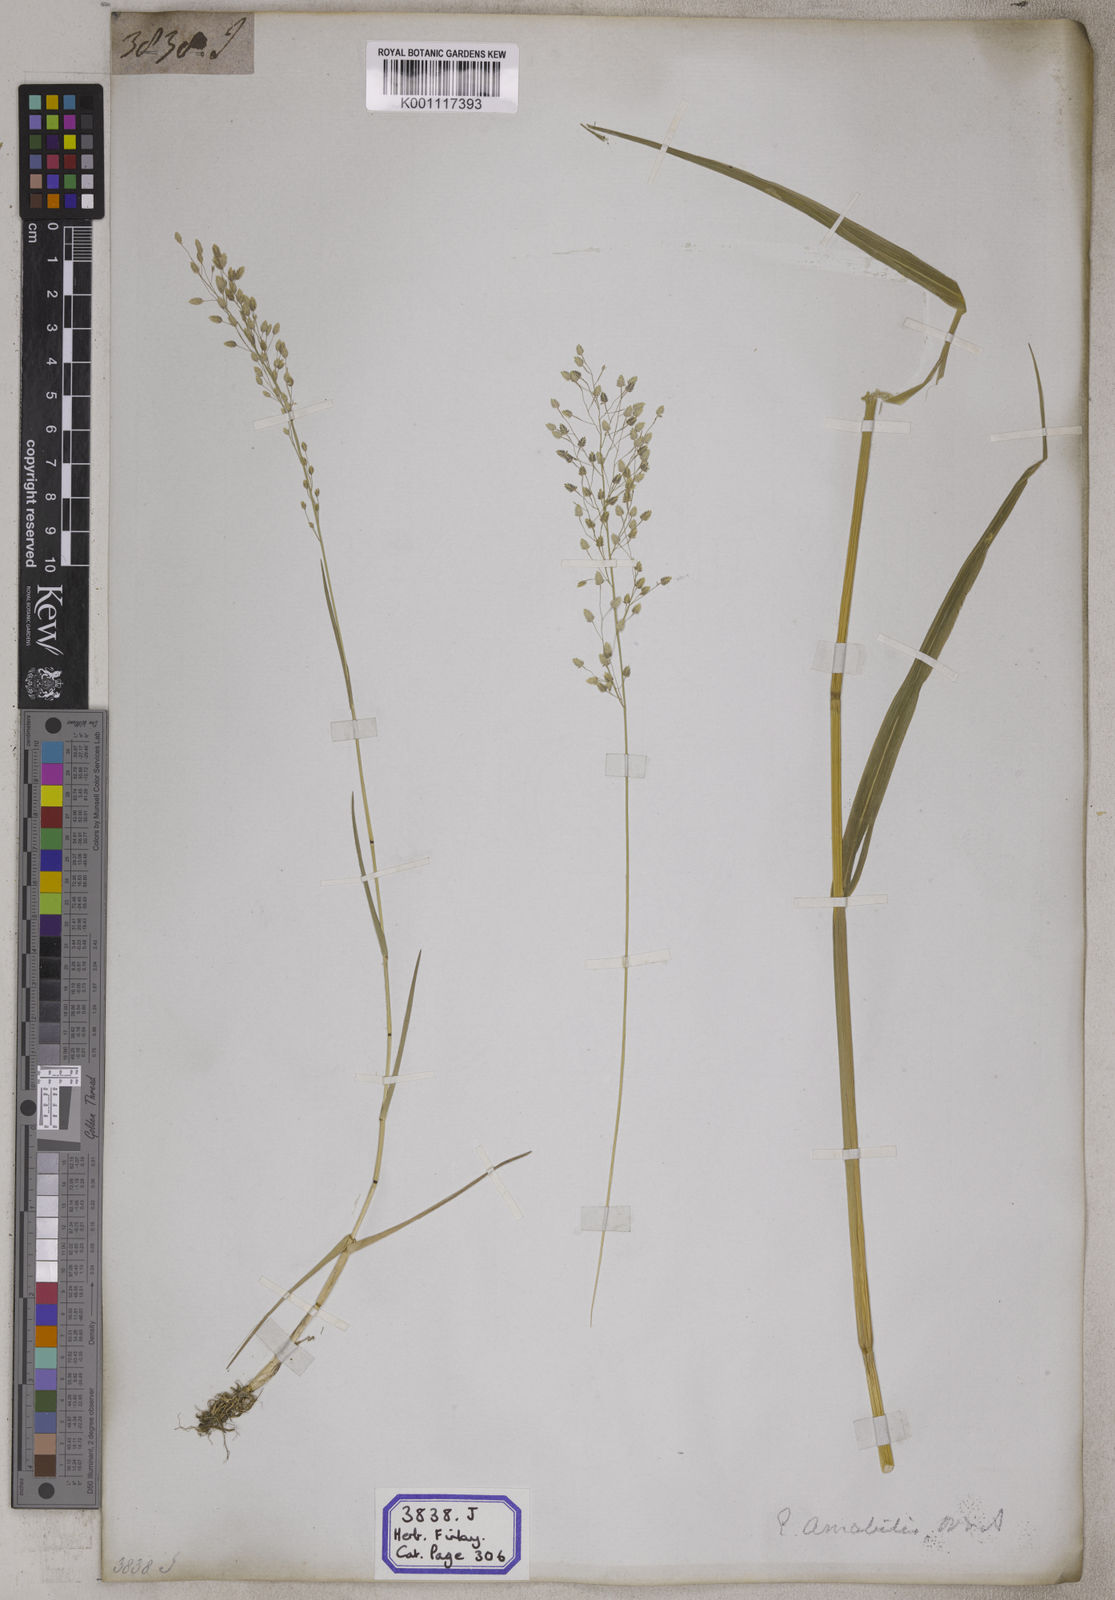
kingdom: Plantae
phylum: Tracheophyta
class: Liliopsida
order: Poales
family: Poaceae
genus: Eragrostis
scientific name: Eragrostis
